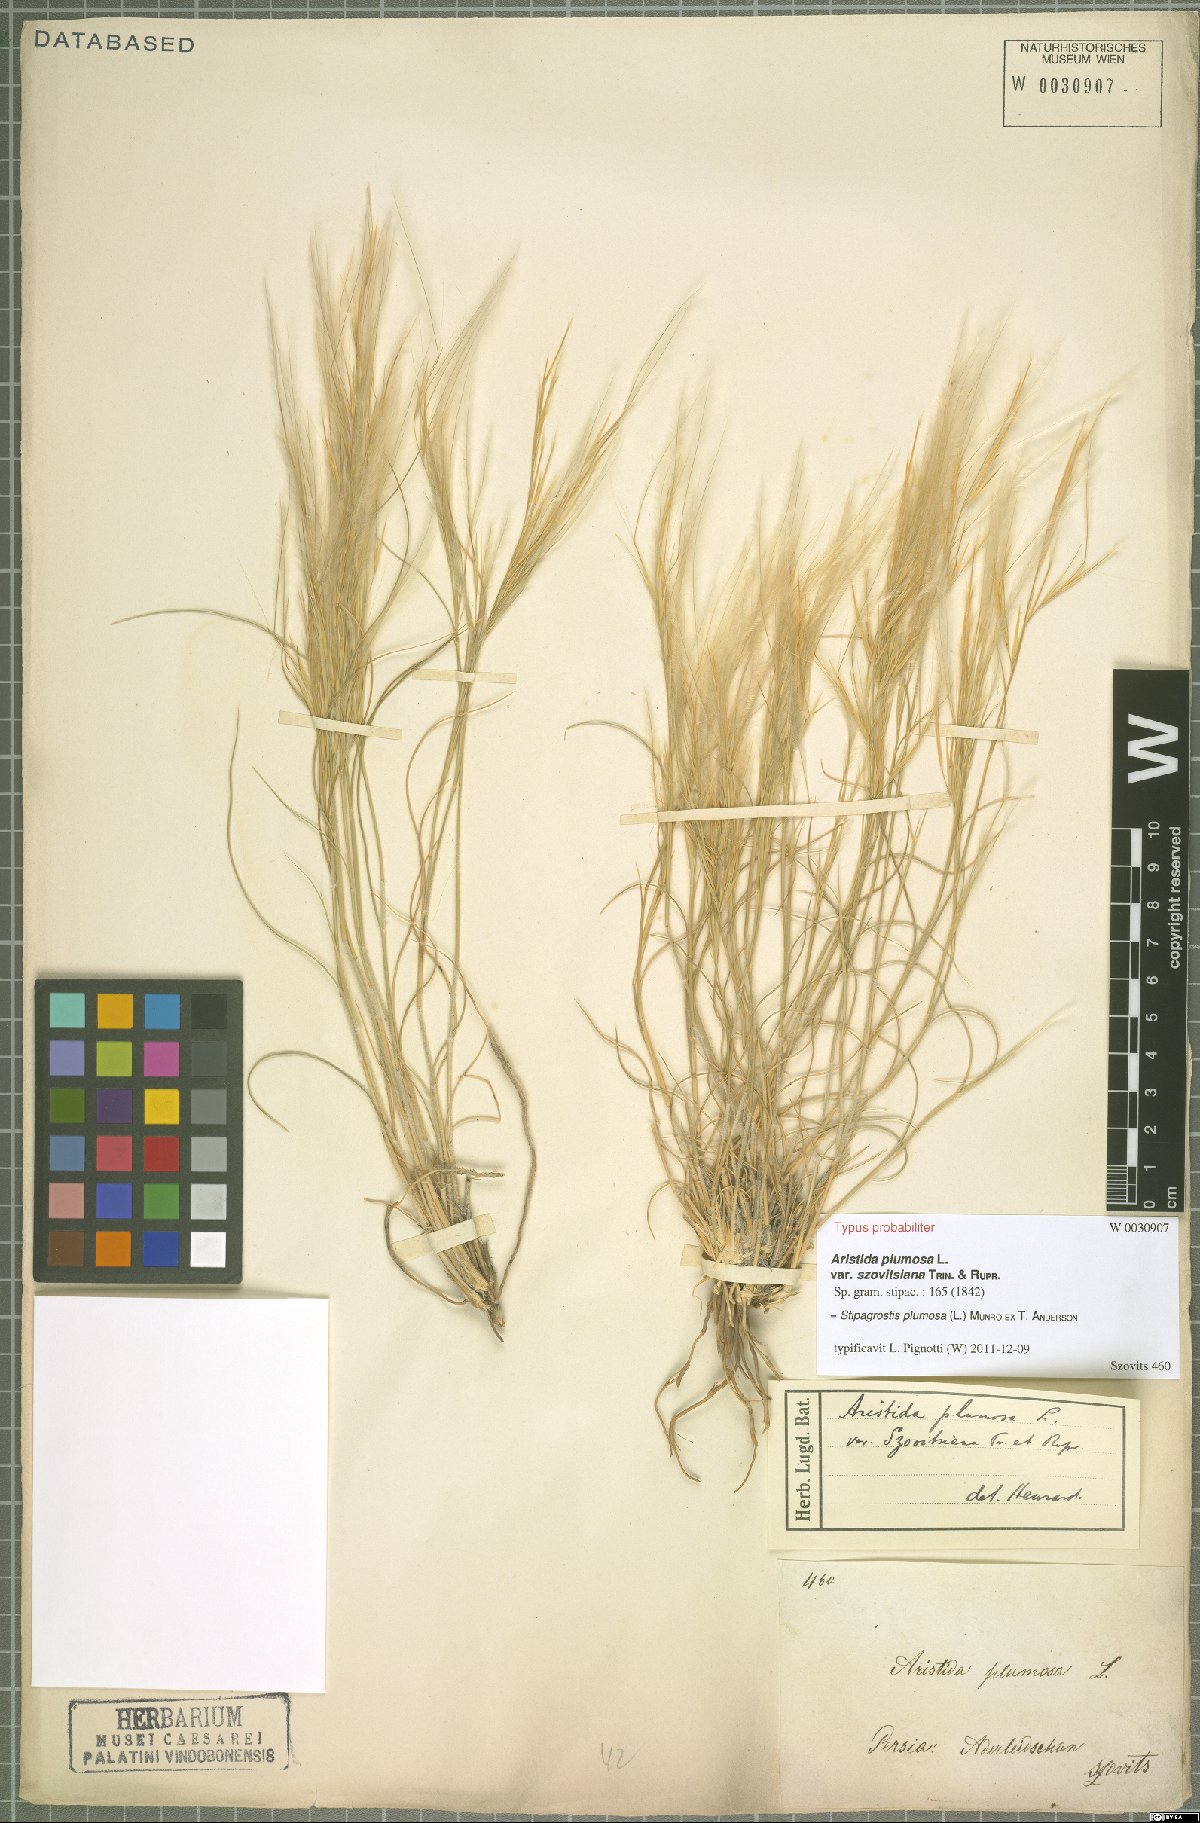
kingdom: Plantae
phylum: Tracheophyta
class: Liliopsida
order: Poales
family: Poaceae
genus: Stipagrostis
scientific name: Stipagrostis plumosa
